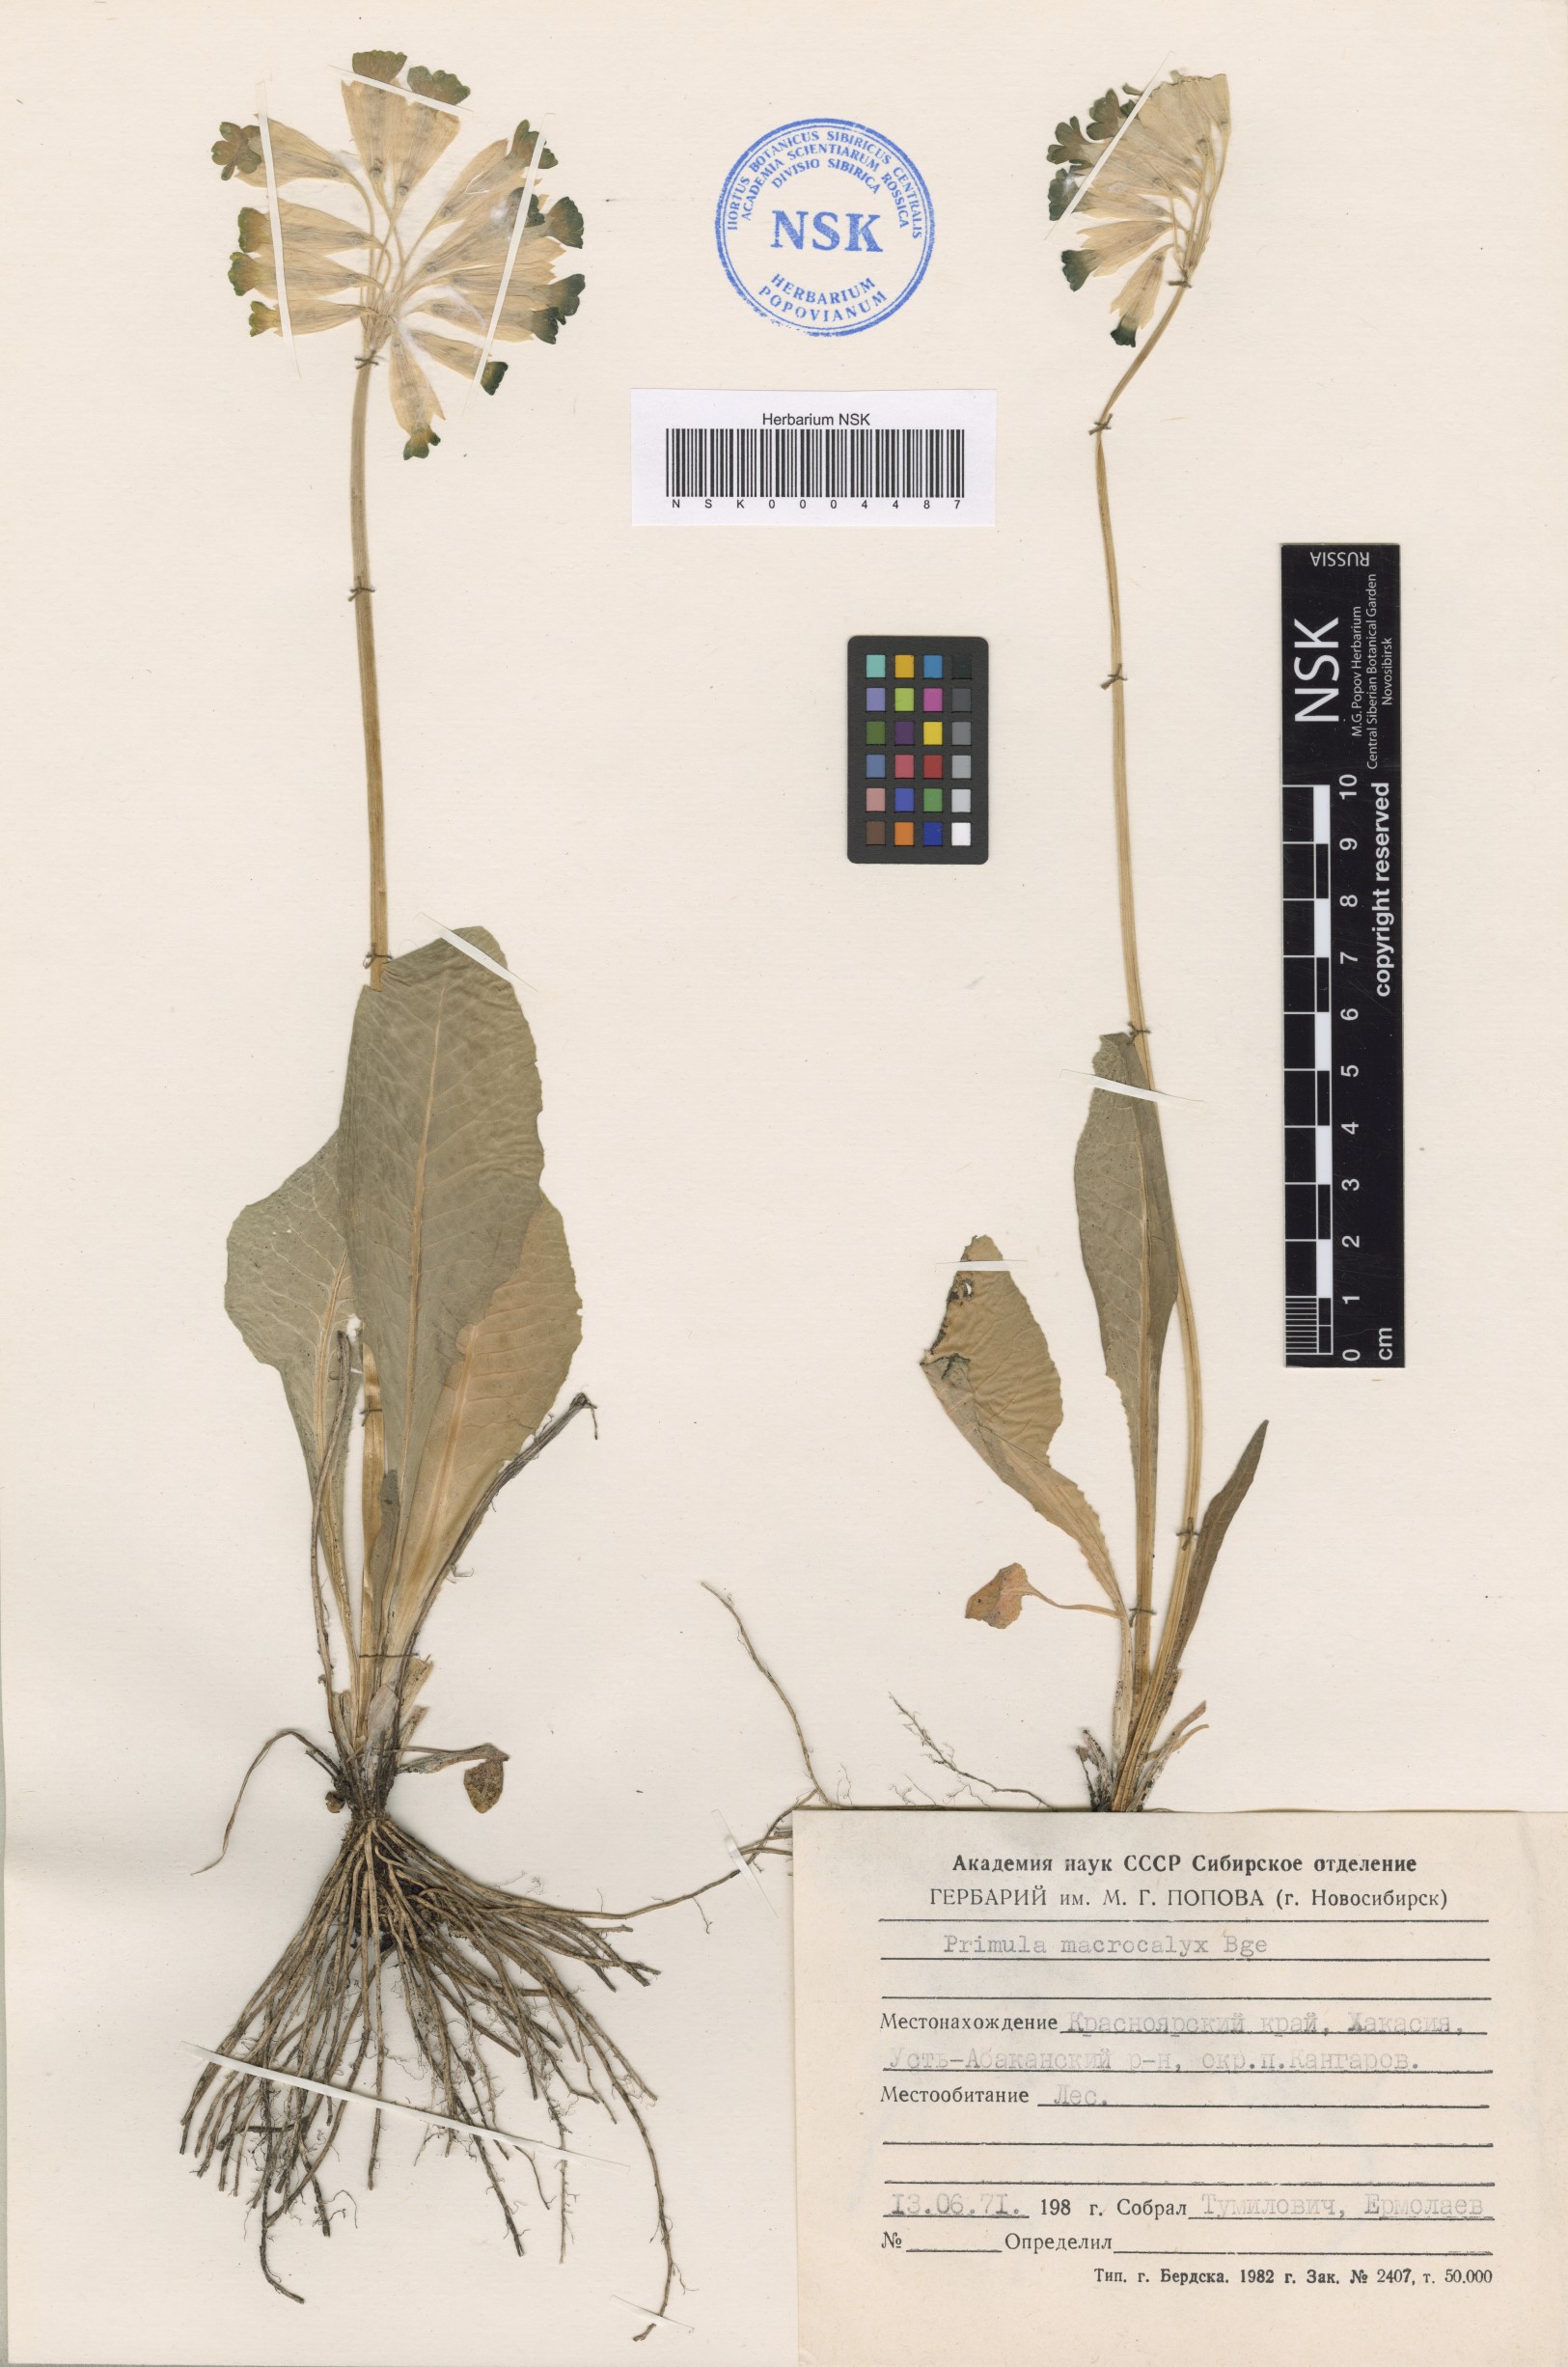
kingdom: Plantae
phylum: Tracheophyta
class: Magnoliopsida
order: Ericales
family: Primulaceae
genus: Primula
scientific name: Primula veris
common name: Cowslip
